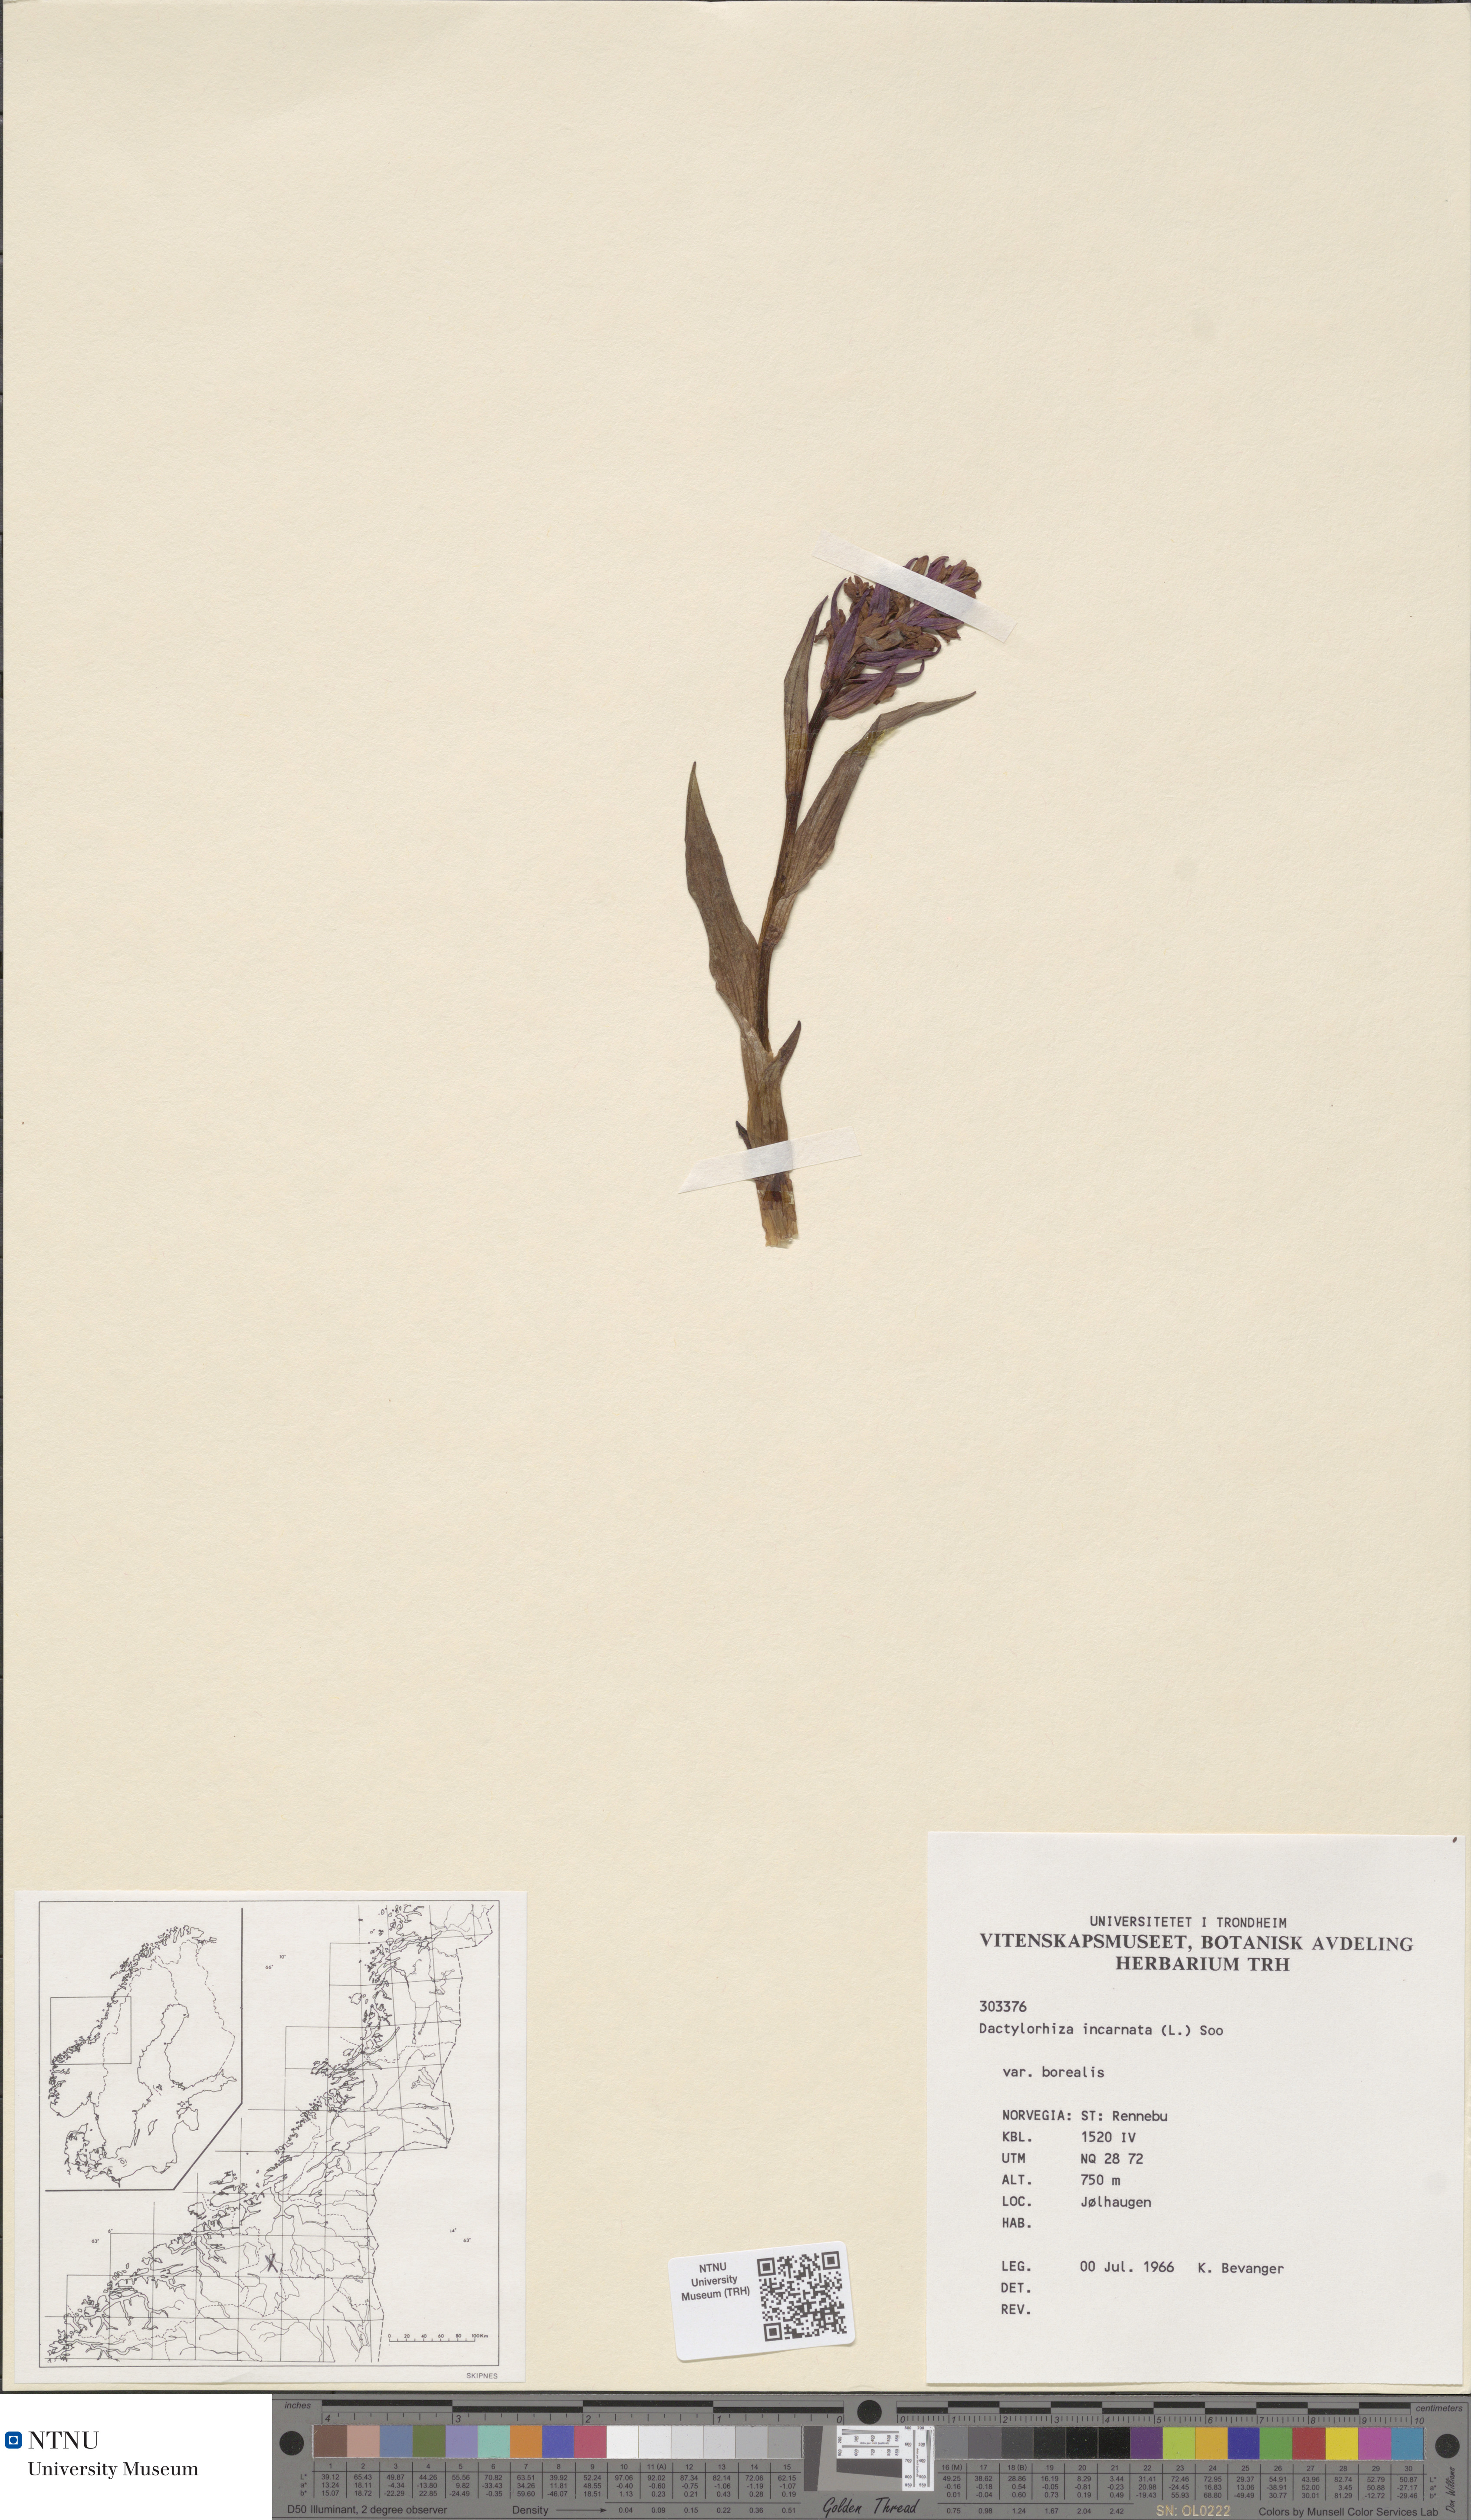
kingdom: Plantae
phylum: Tracheophyta
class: Liliopsida
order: Asparagales
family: Orchidaceae
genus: Dactylorhiza
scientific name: Dactylorhiza incarnata
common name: Early marsh-orchid
